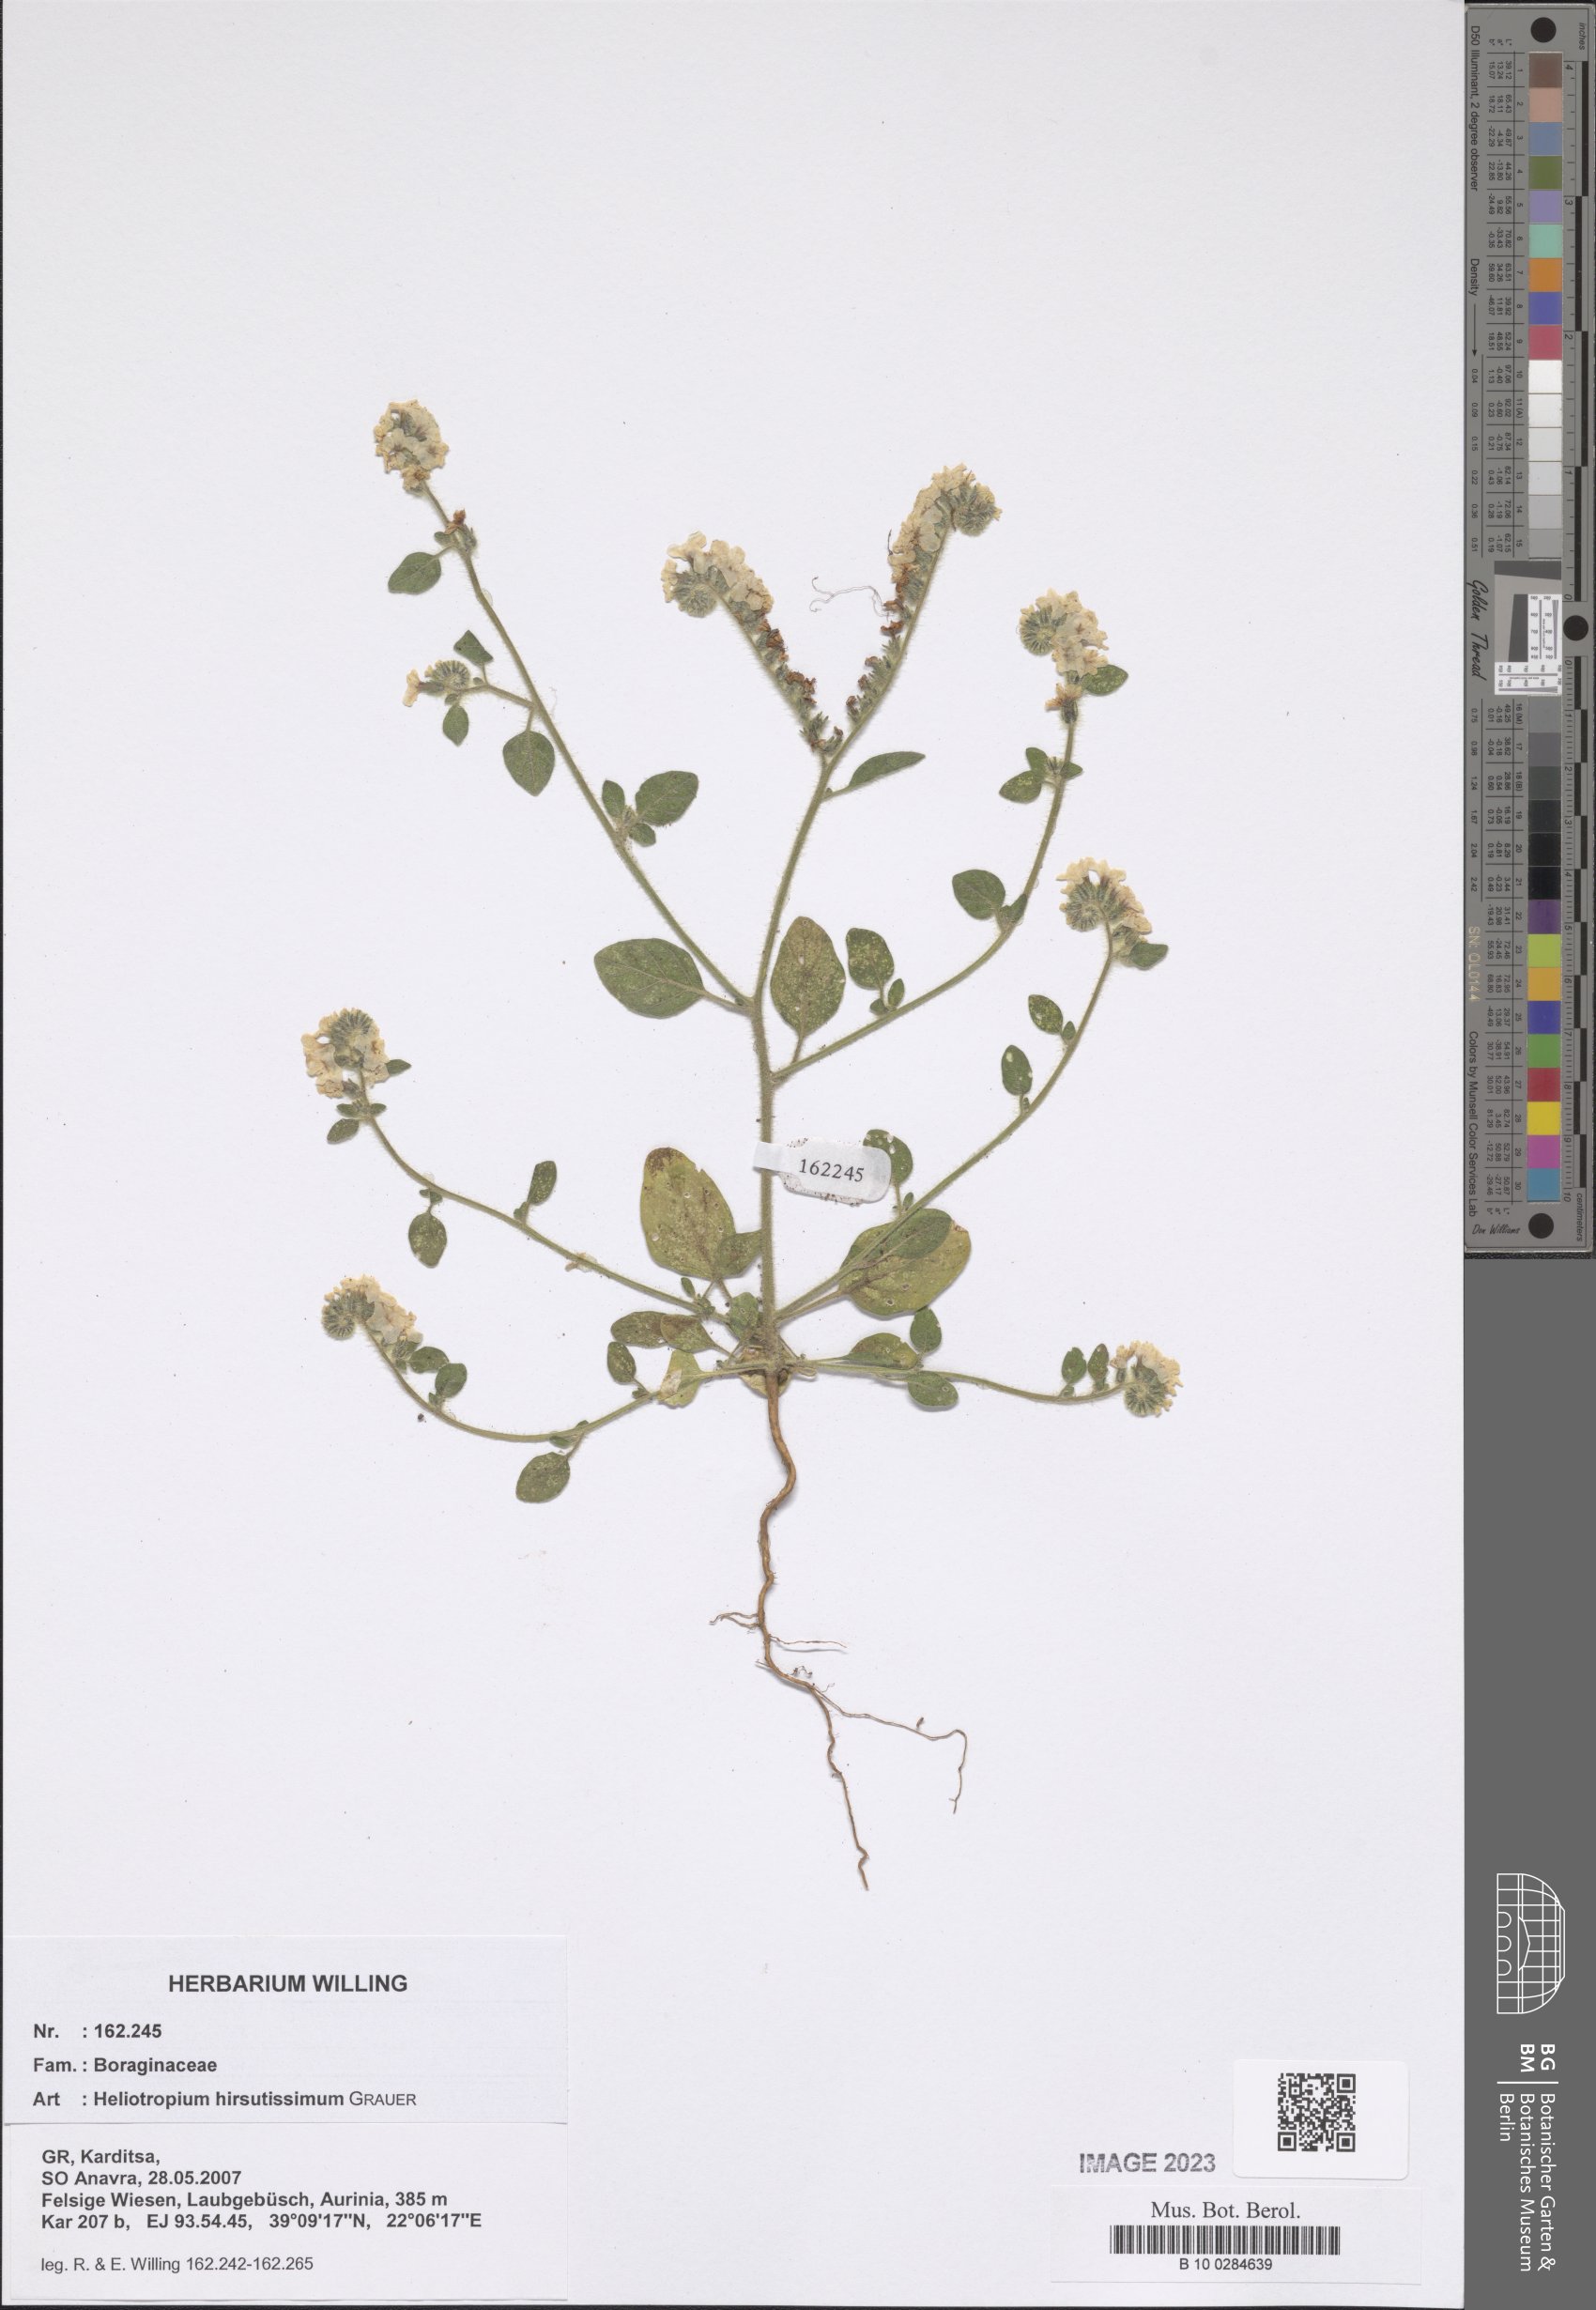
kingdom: Plantae
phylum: Tracheophyta
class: Magnoliopsida
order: Boraginales
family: Heliotropiaceae
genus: Heliotropium
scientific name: Heliotropium hirsutissimum
